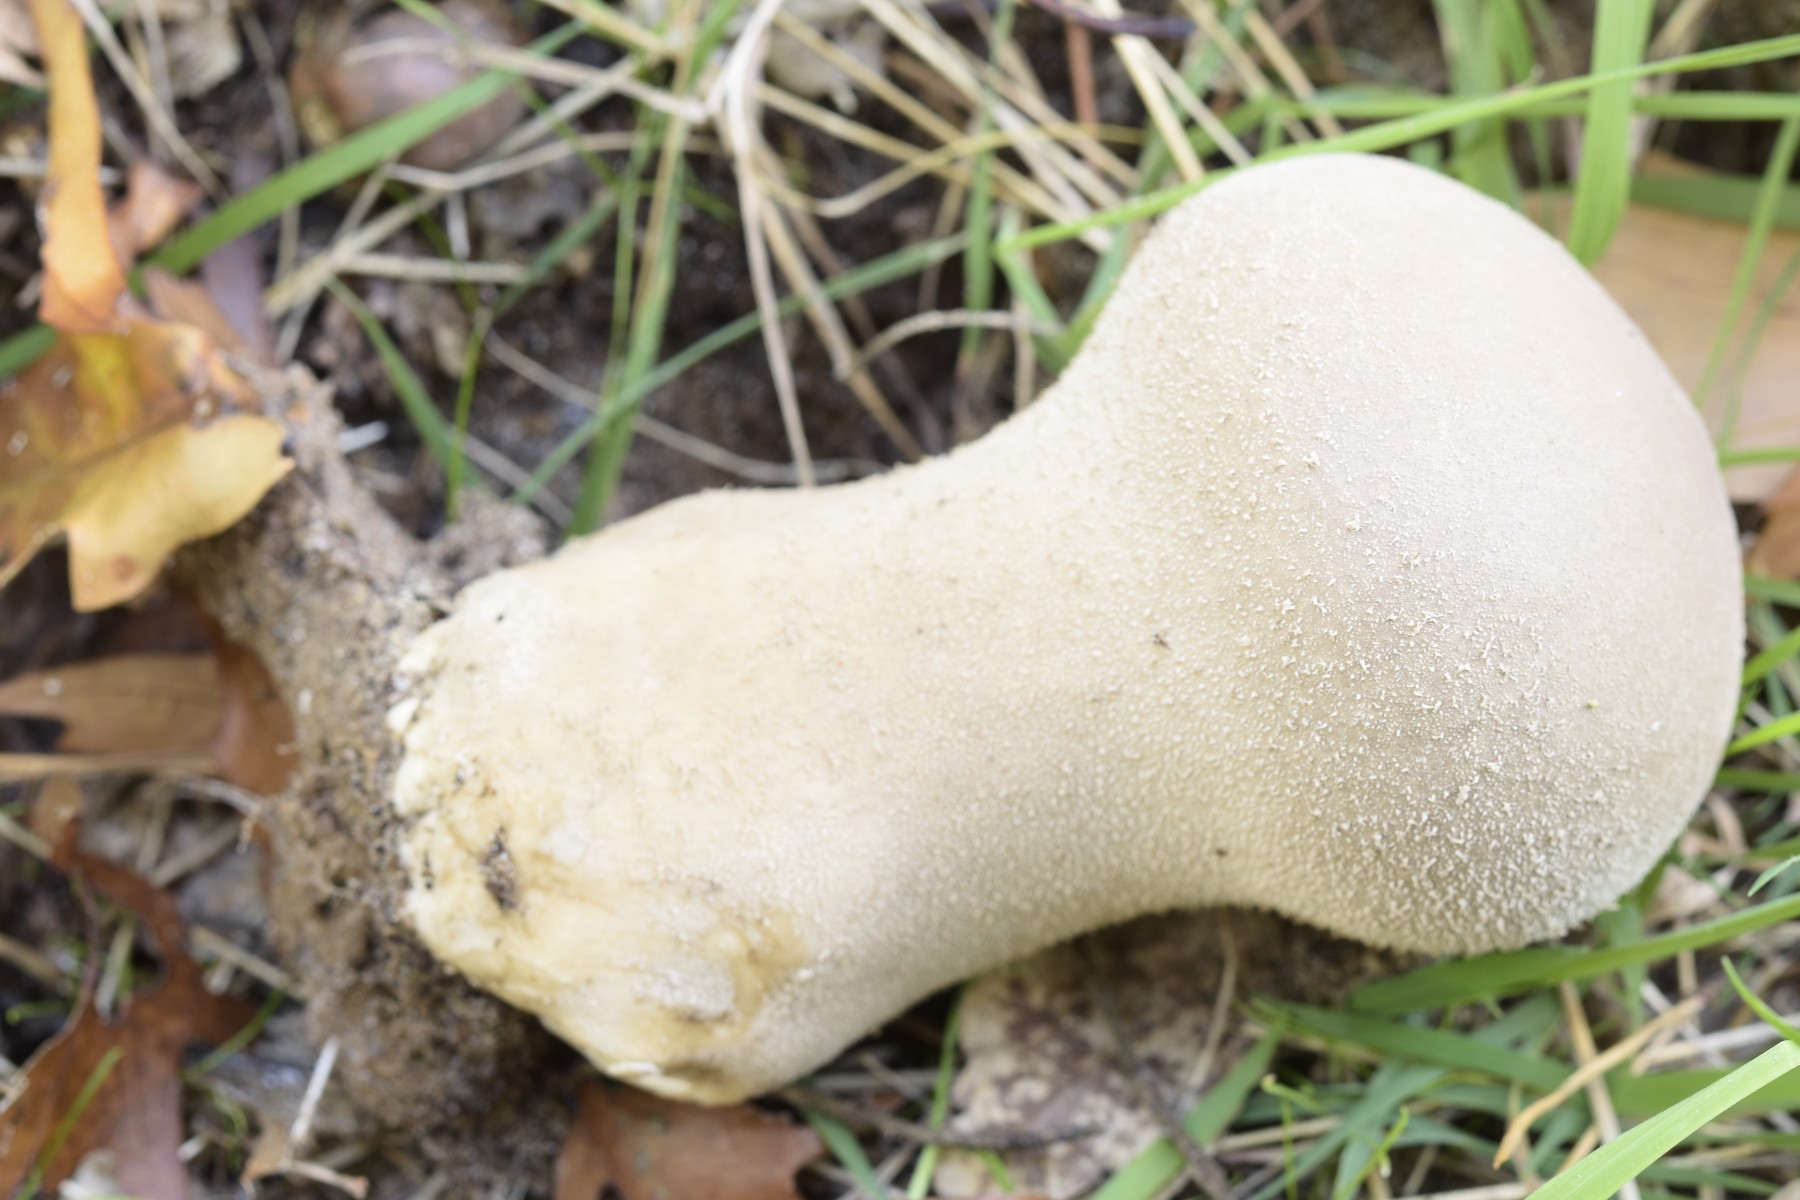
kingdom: Fungi
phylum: Basidiomycota
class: Agaricomycetes
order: Agaricales
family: Lycoperdaceae
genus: Lycoperdon
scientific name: Lycoperdon excipuliforme
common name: højstokket støvbold
